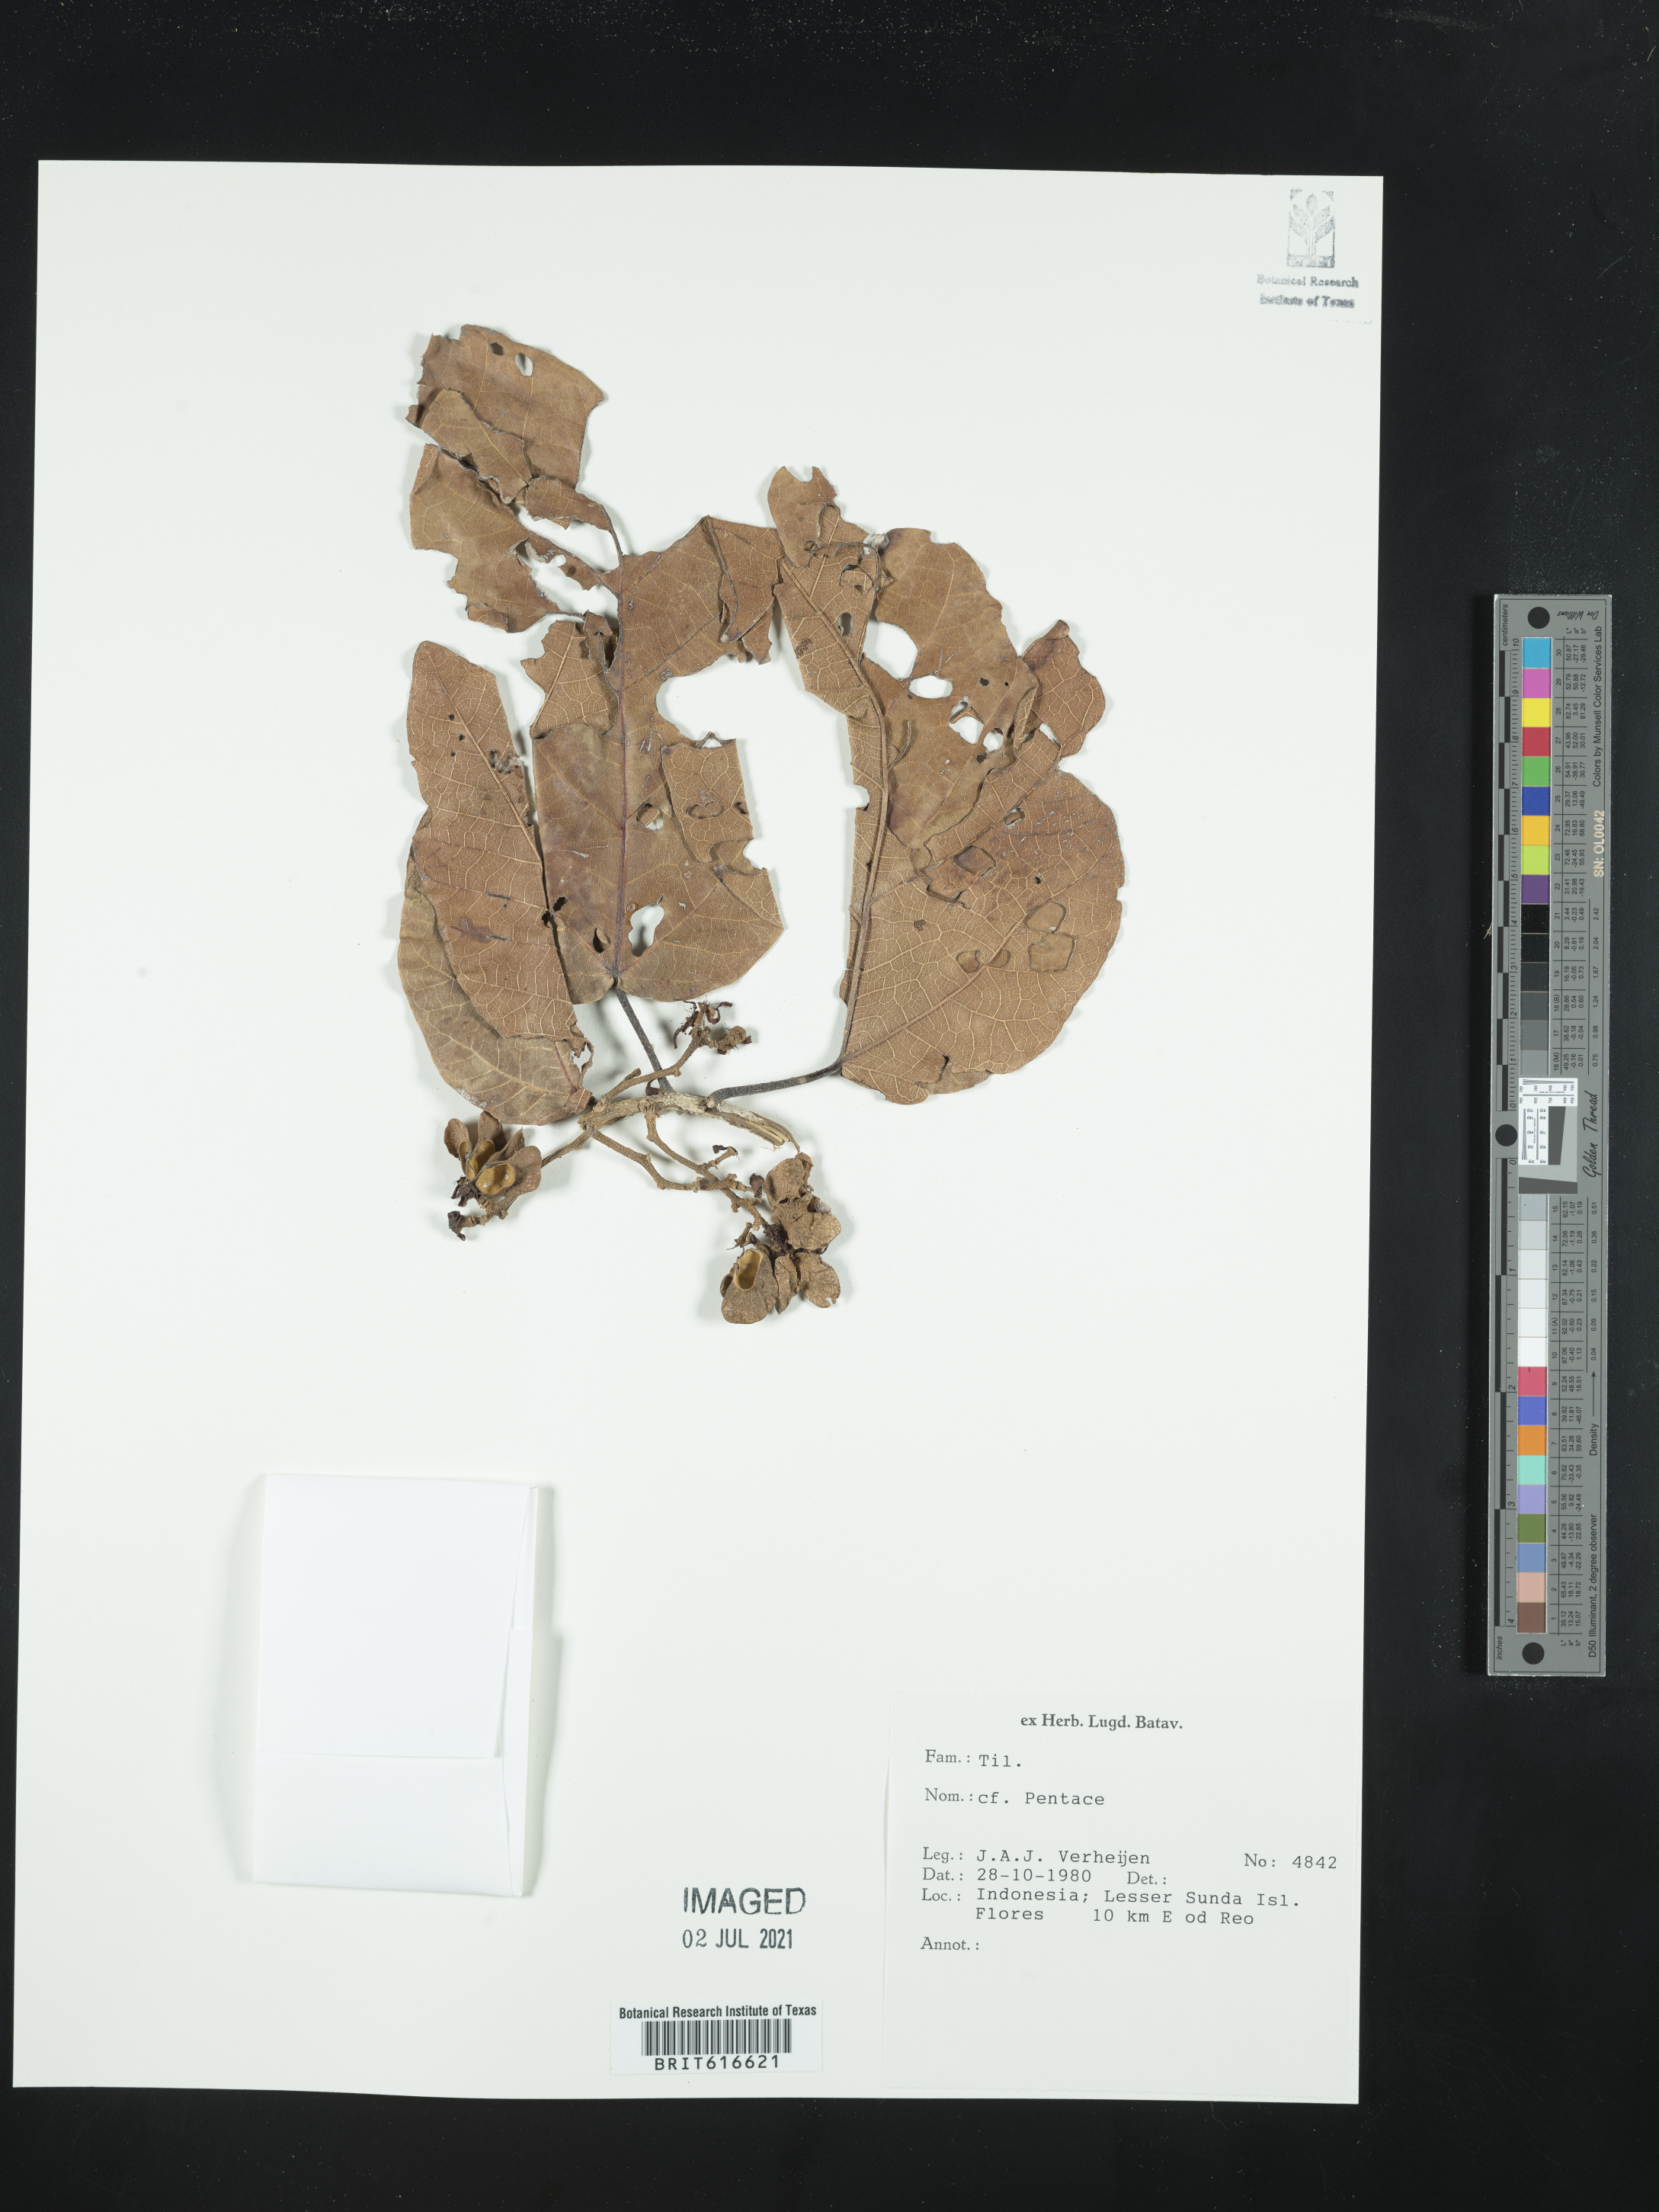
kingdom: Plantae
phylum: Tracheophyta
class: Magnoliopsida
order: Malvales
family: Malvaceae
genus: Pentace
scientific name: Pentace
